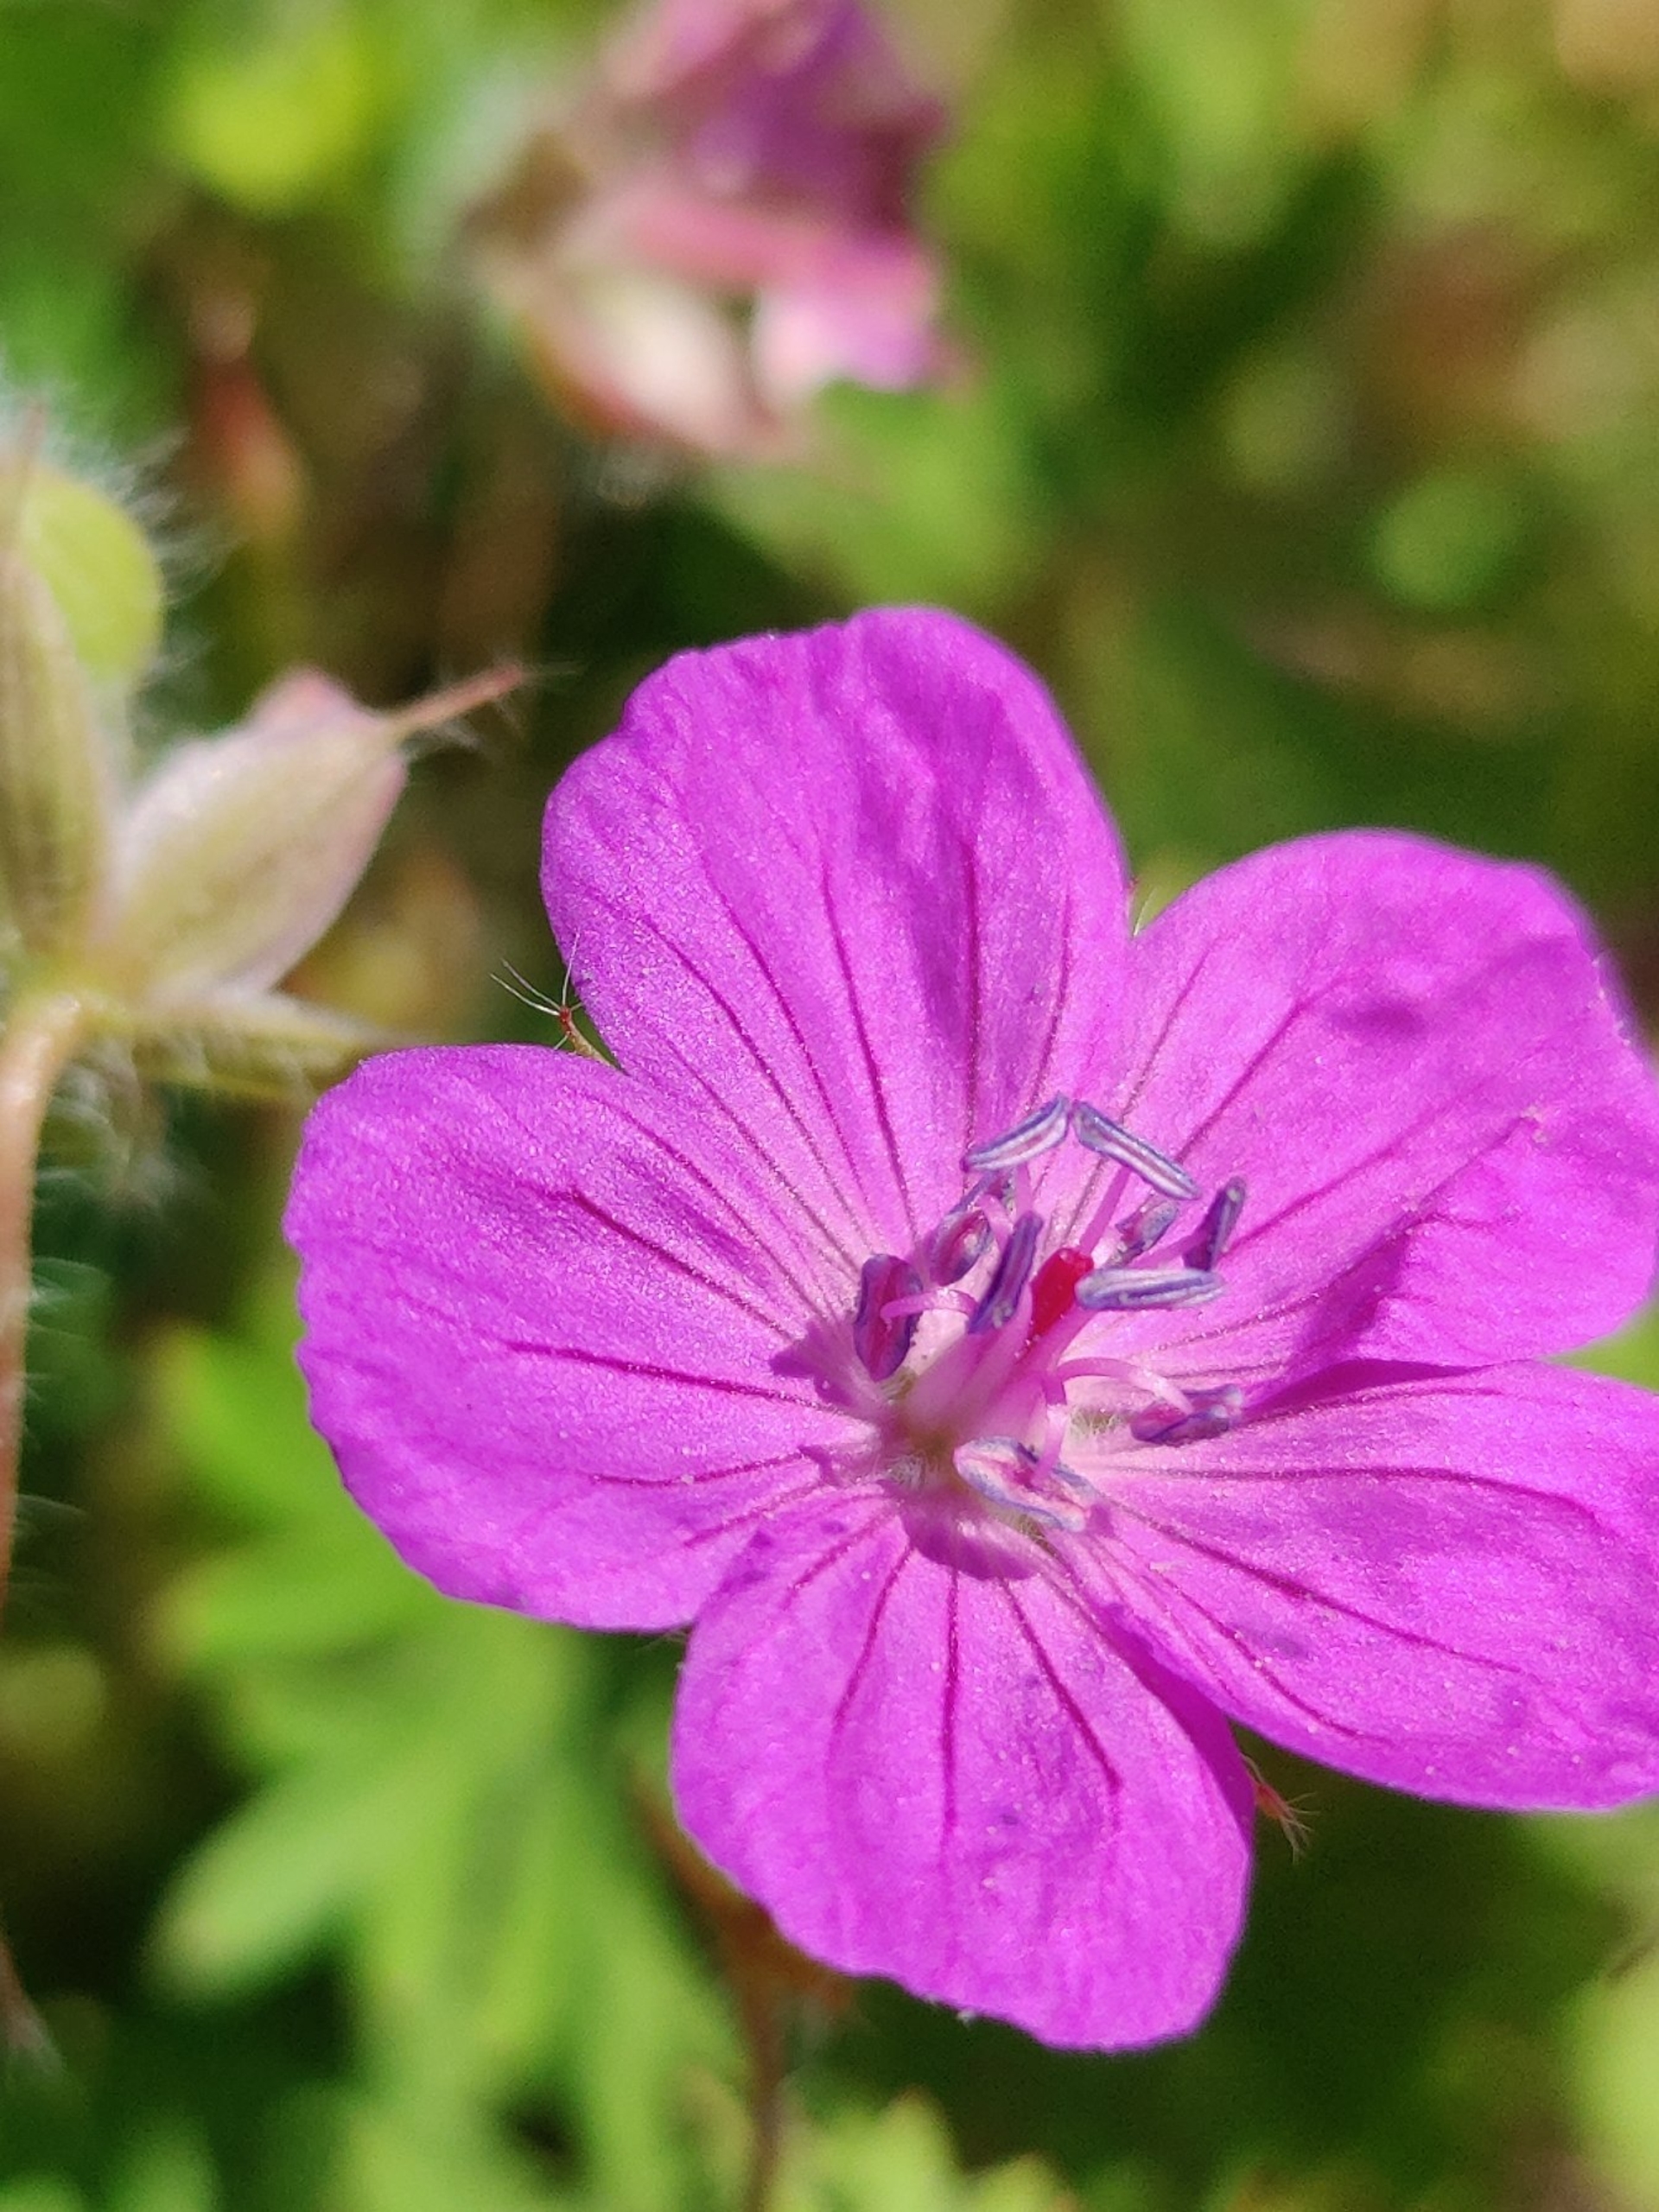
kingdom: Plantae
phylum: Tracheophyta
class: Magnoliopsida
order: Geraniales
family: Geraniaceae
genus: Geranium
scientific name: Geranium sanguineum
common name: Blodrød storkenæb
